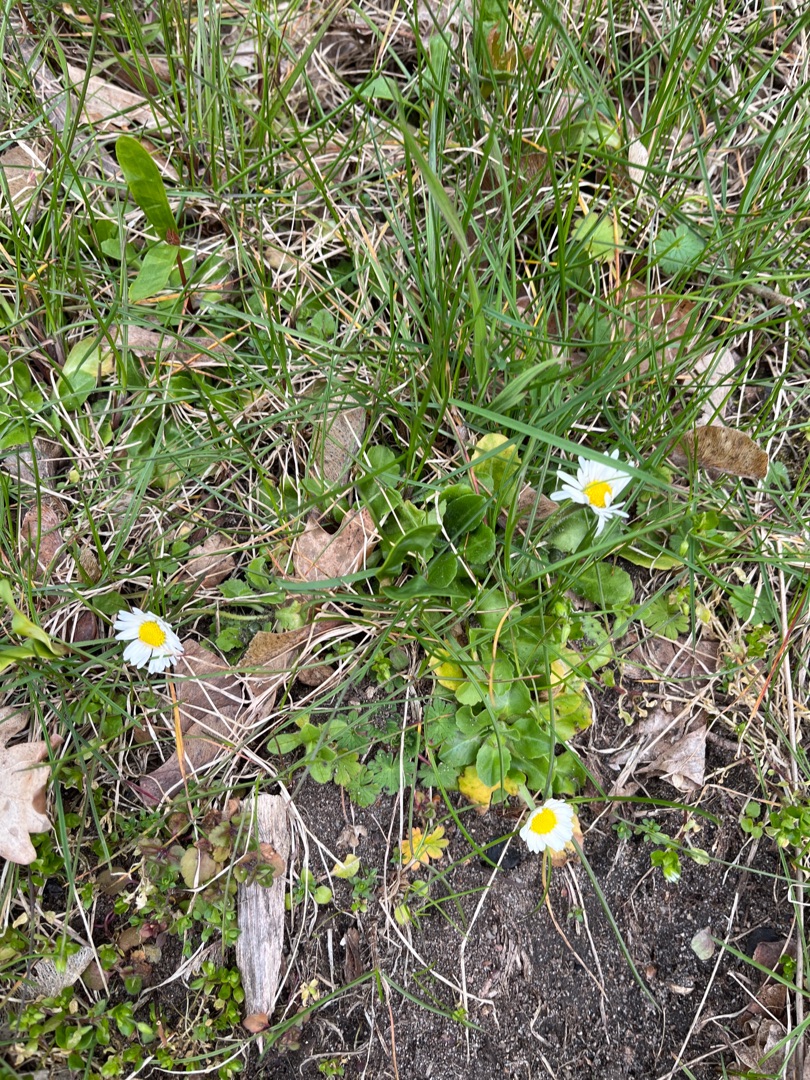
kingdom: Plantae
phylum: Tracheophyta
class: Magnoliopsida
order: Asterales
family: Asteraceae
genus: Bellis
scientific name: Bellis perennis
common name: Tusindfryd
